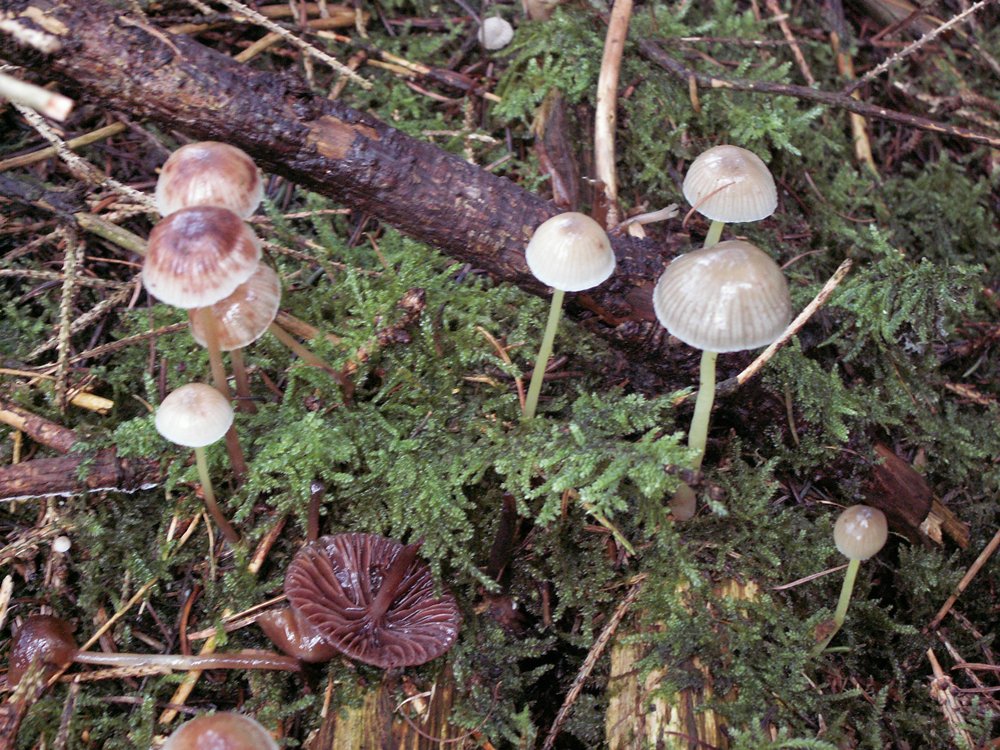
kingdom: Fungi
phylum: Basidiomycota
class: Agaricomycetes
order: Agaricales
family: Mycenaceae
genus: Mycena
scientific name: Mycena epipterygia
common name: gulstokket huesvamp
